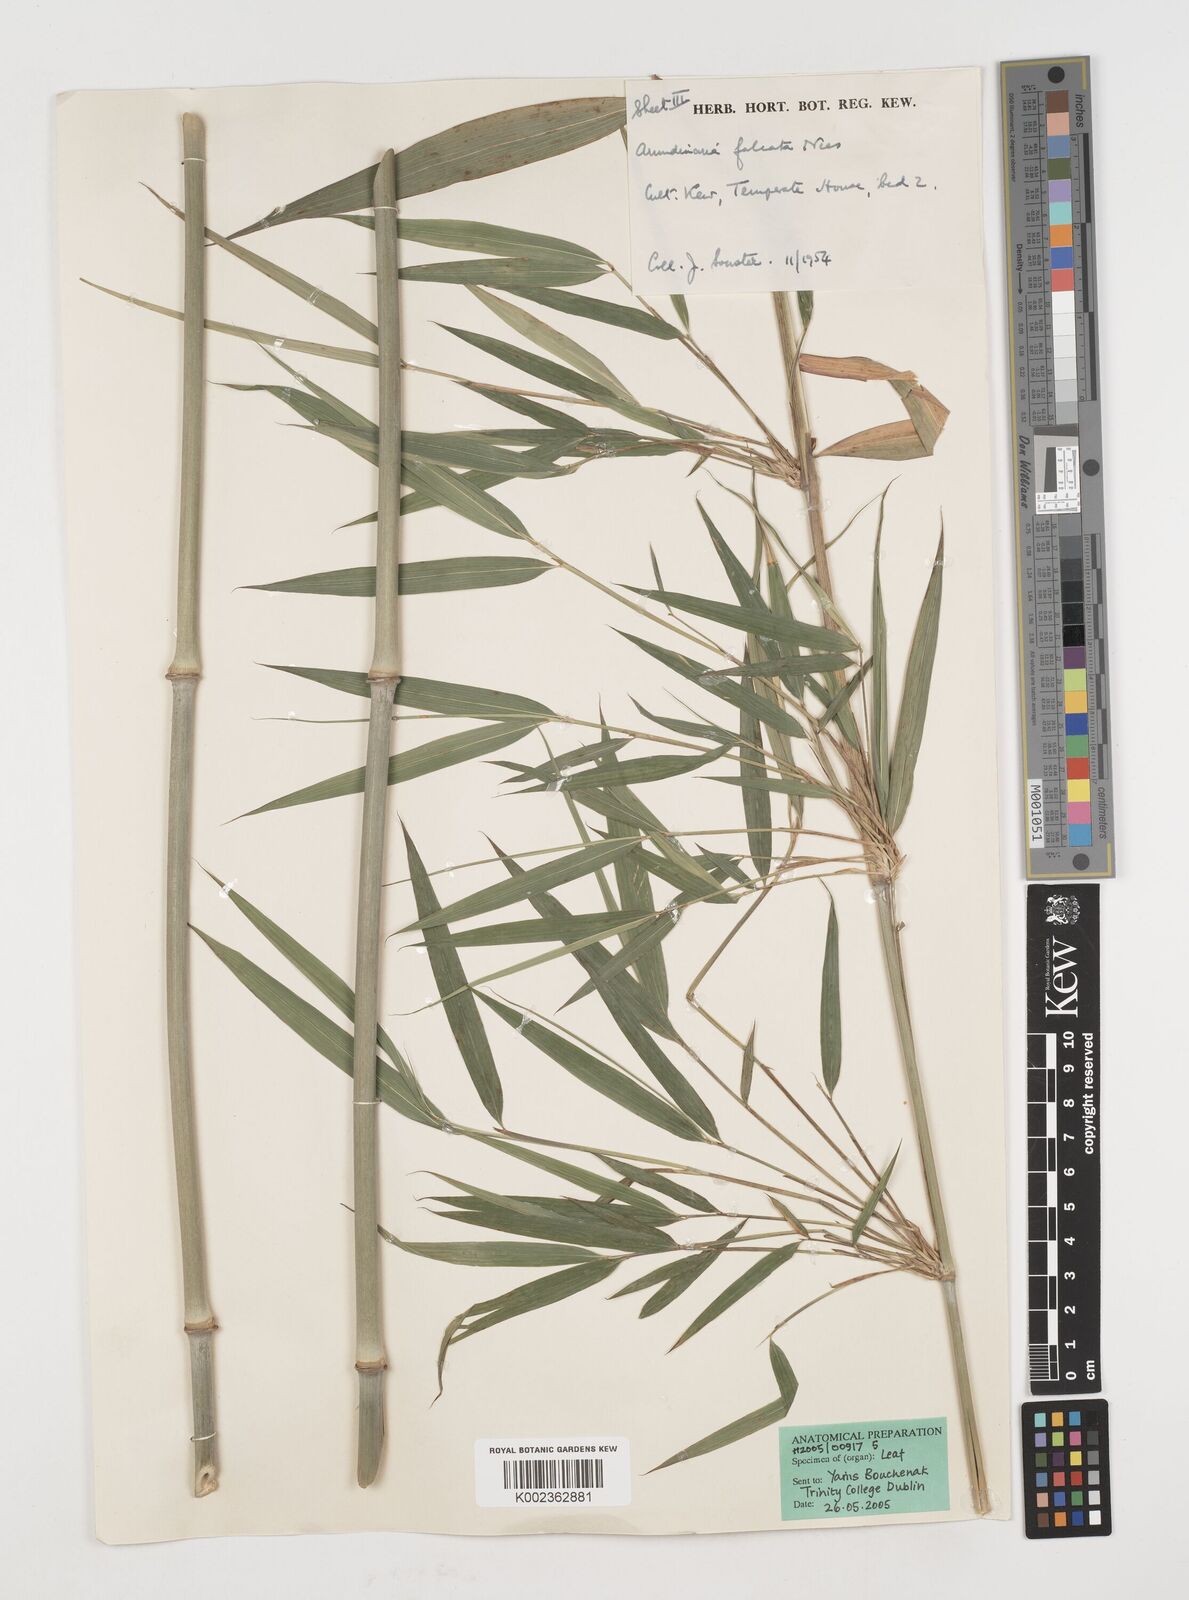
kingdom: Plantae
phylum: Tracheophyta
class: Liliopsida
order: Poales
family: Poaceae
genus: Drepanostachyum
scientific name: Drepanostachyum falcatum
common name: Himalayan bamboo
